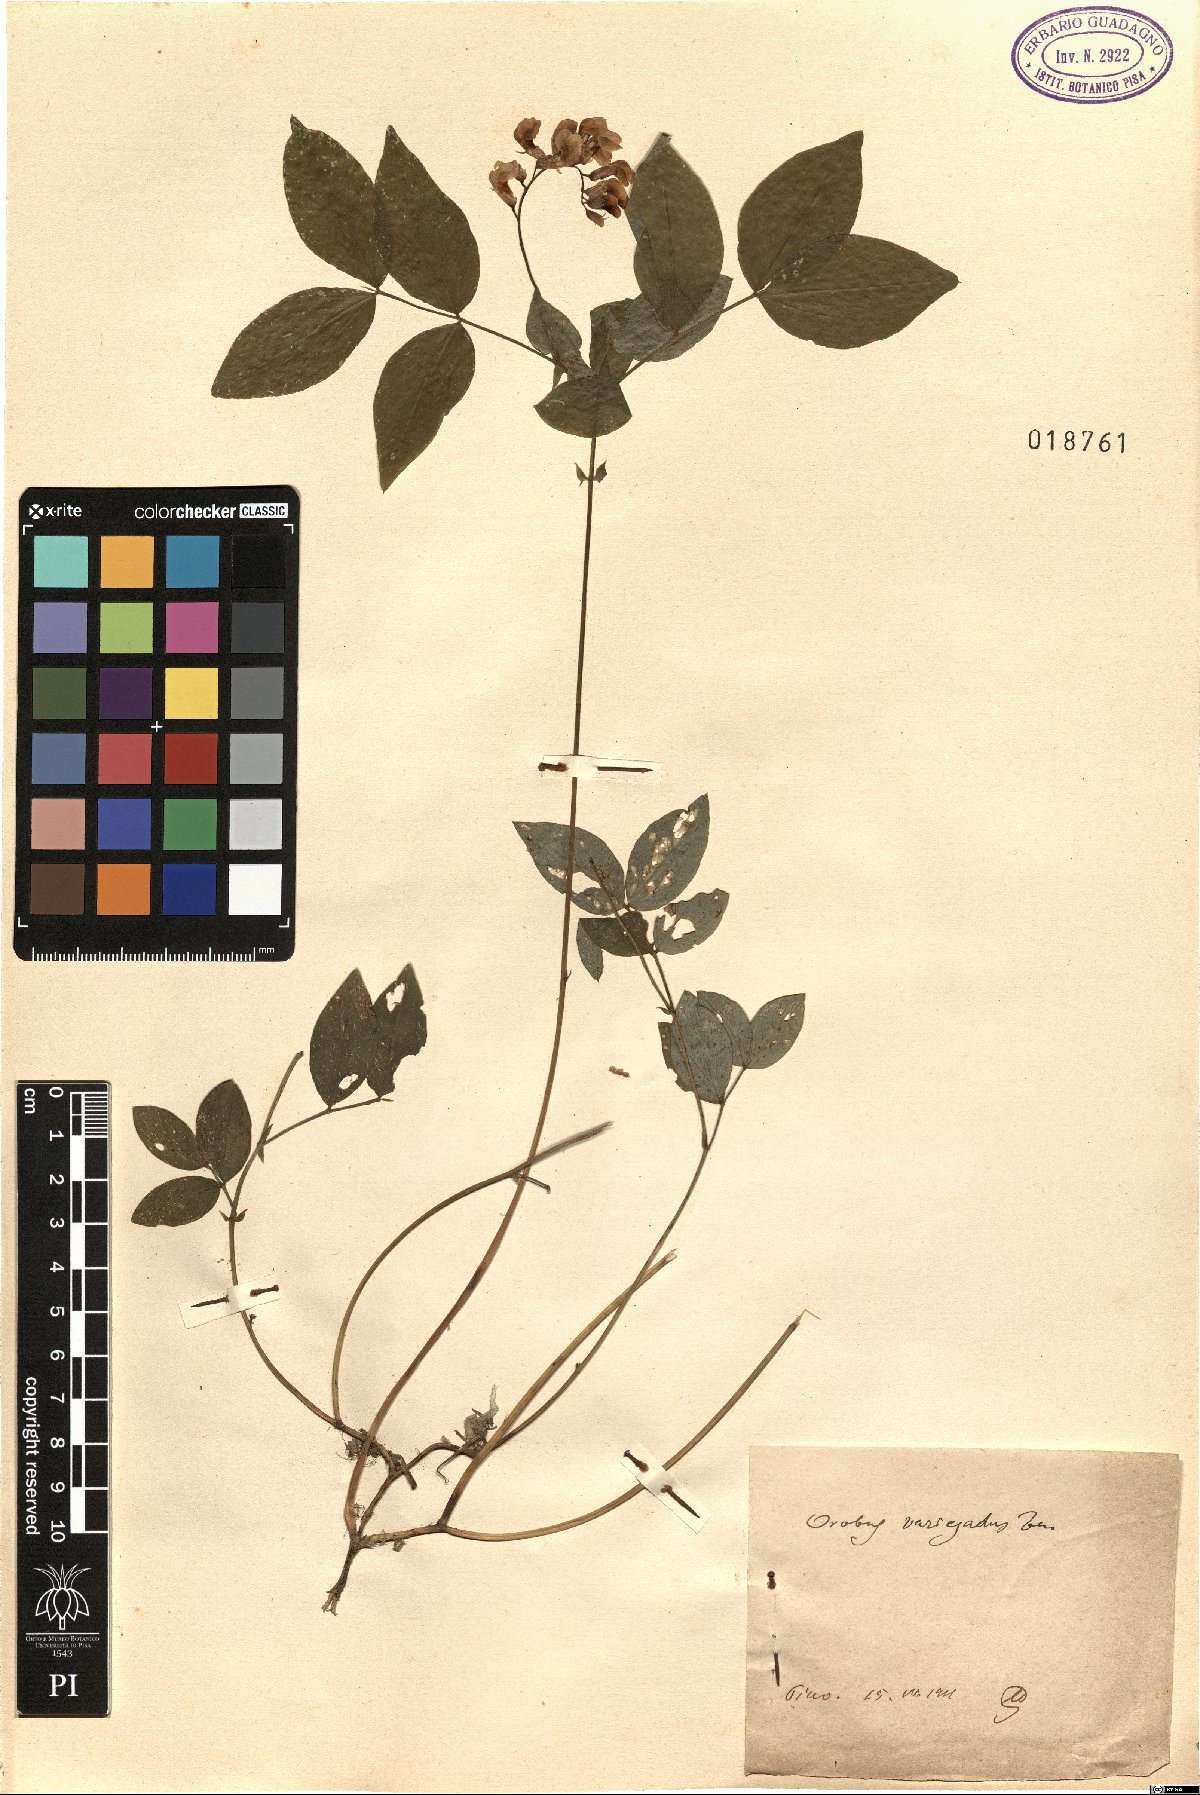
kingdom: Plantae
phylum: Tracheophyta
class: Magnoliopsida
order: Fabales
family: Fabaceae
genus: Lathyrus
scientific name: Lathyrus venetus
